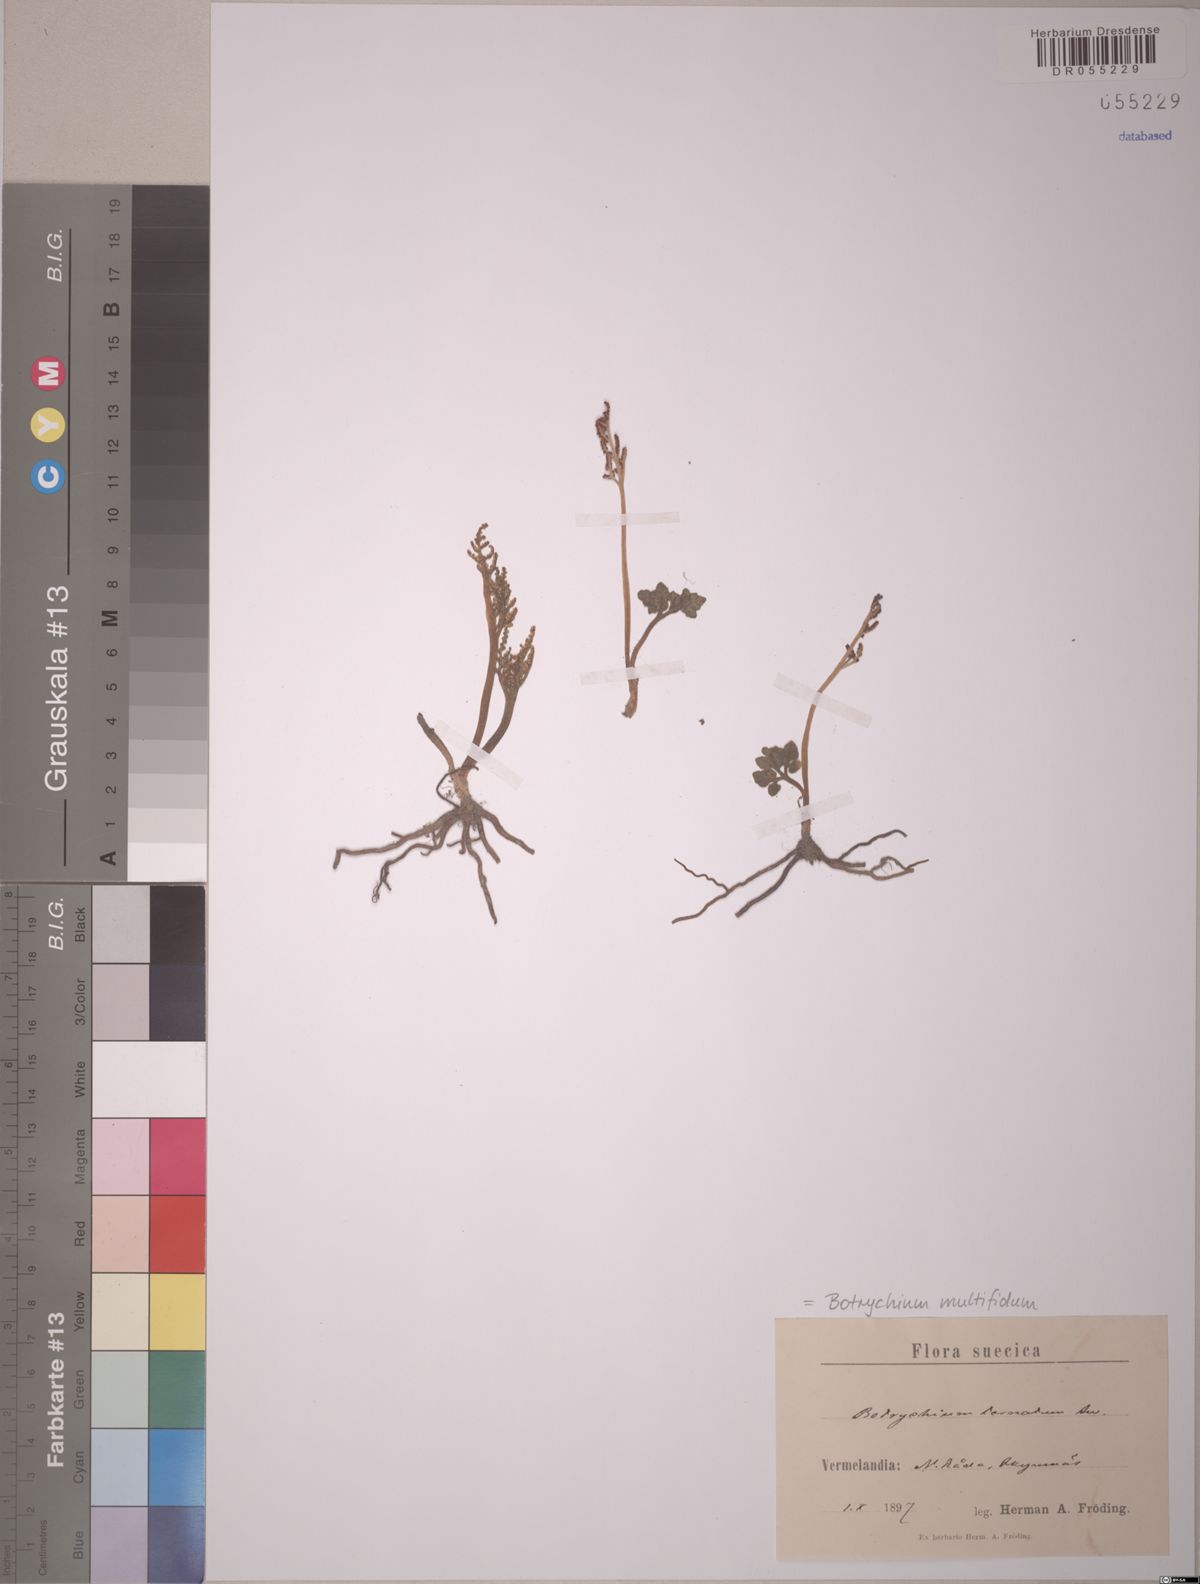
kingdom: Plantae
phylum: Tracheophyta
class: Polypodiopsida
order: Ophioglossales
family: Ophioglossaceae
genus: Sceptridium
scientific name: Sceptridium multifidum
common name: Leathery grape fern
